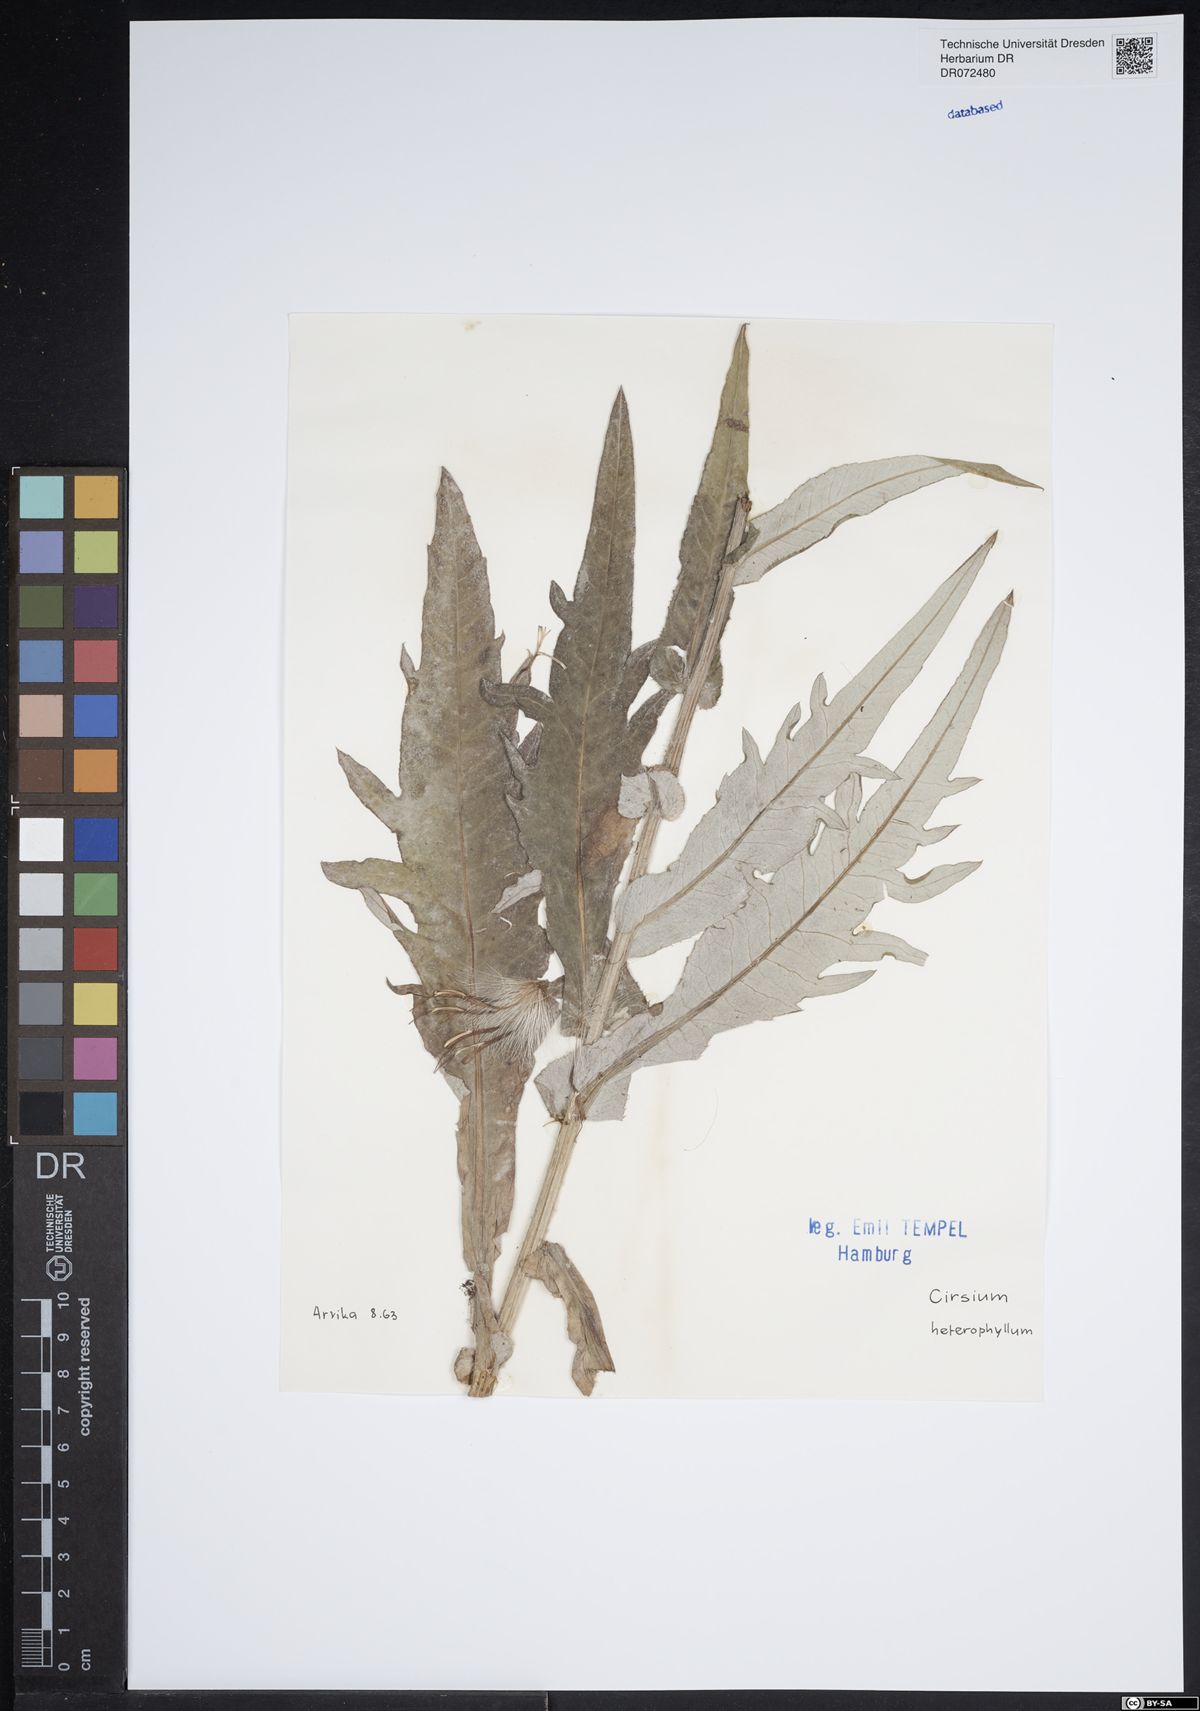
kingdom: Plantae
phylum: Tracheophyta
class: Magnoliopsida
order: Asterales
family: Asteraceae
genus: Cirsium
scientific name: Cirsium heterophyllum
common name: Melancholy thistle
